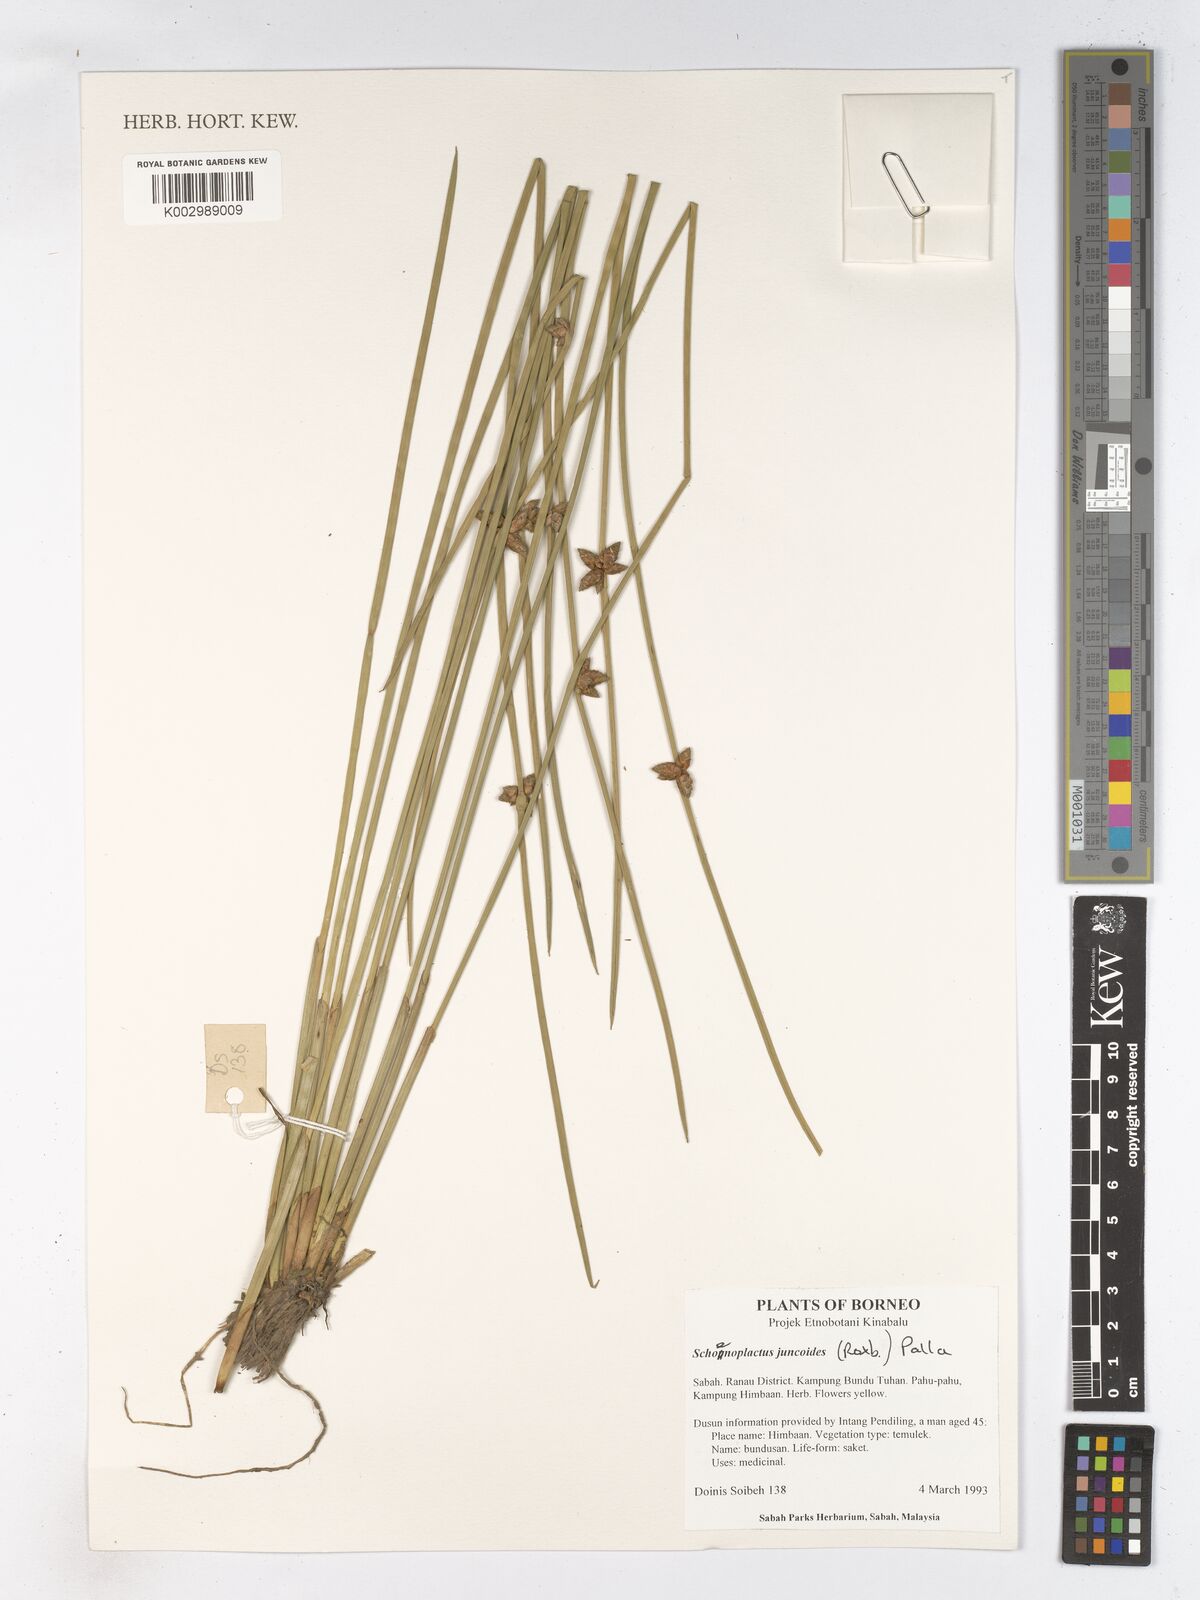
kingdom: Plantae
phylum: Tracheophyta
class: Liliopsida
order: Poales
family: Cyperaceae
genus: Schoenoplectiella
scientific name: Schoenoplectiella juncoides
